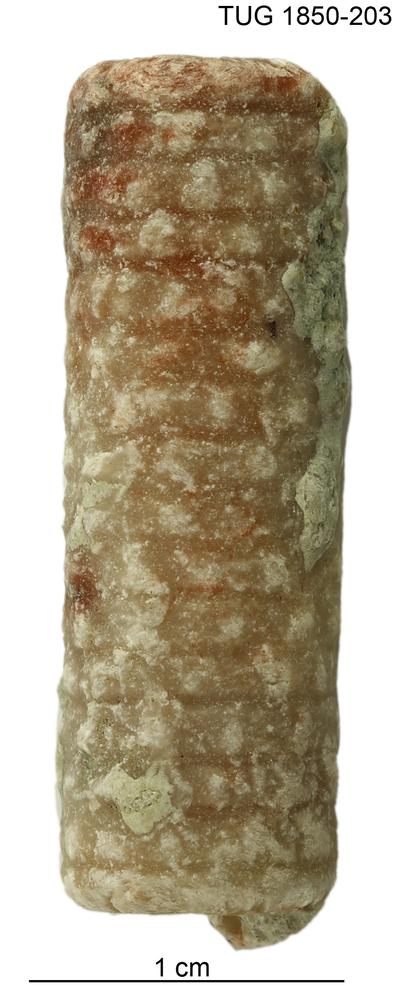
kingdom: Animalia
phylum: Echinodermata
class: Crinoidea
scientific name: Crinoidea
